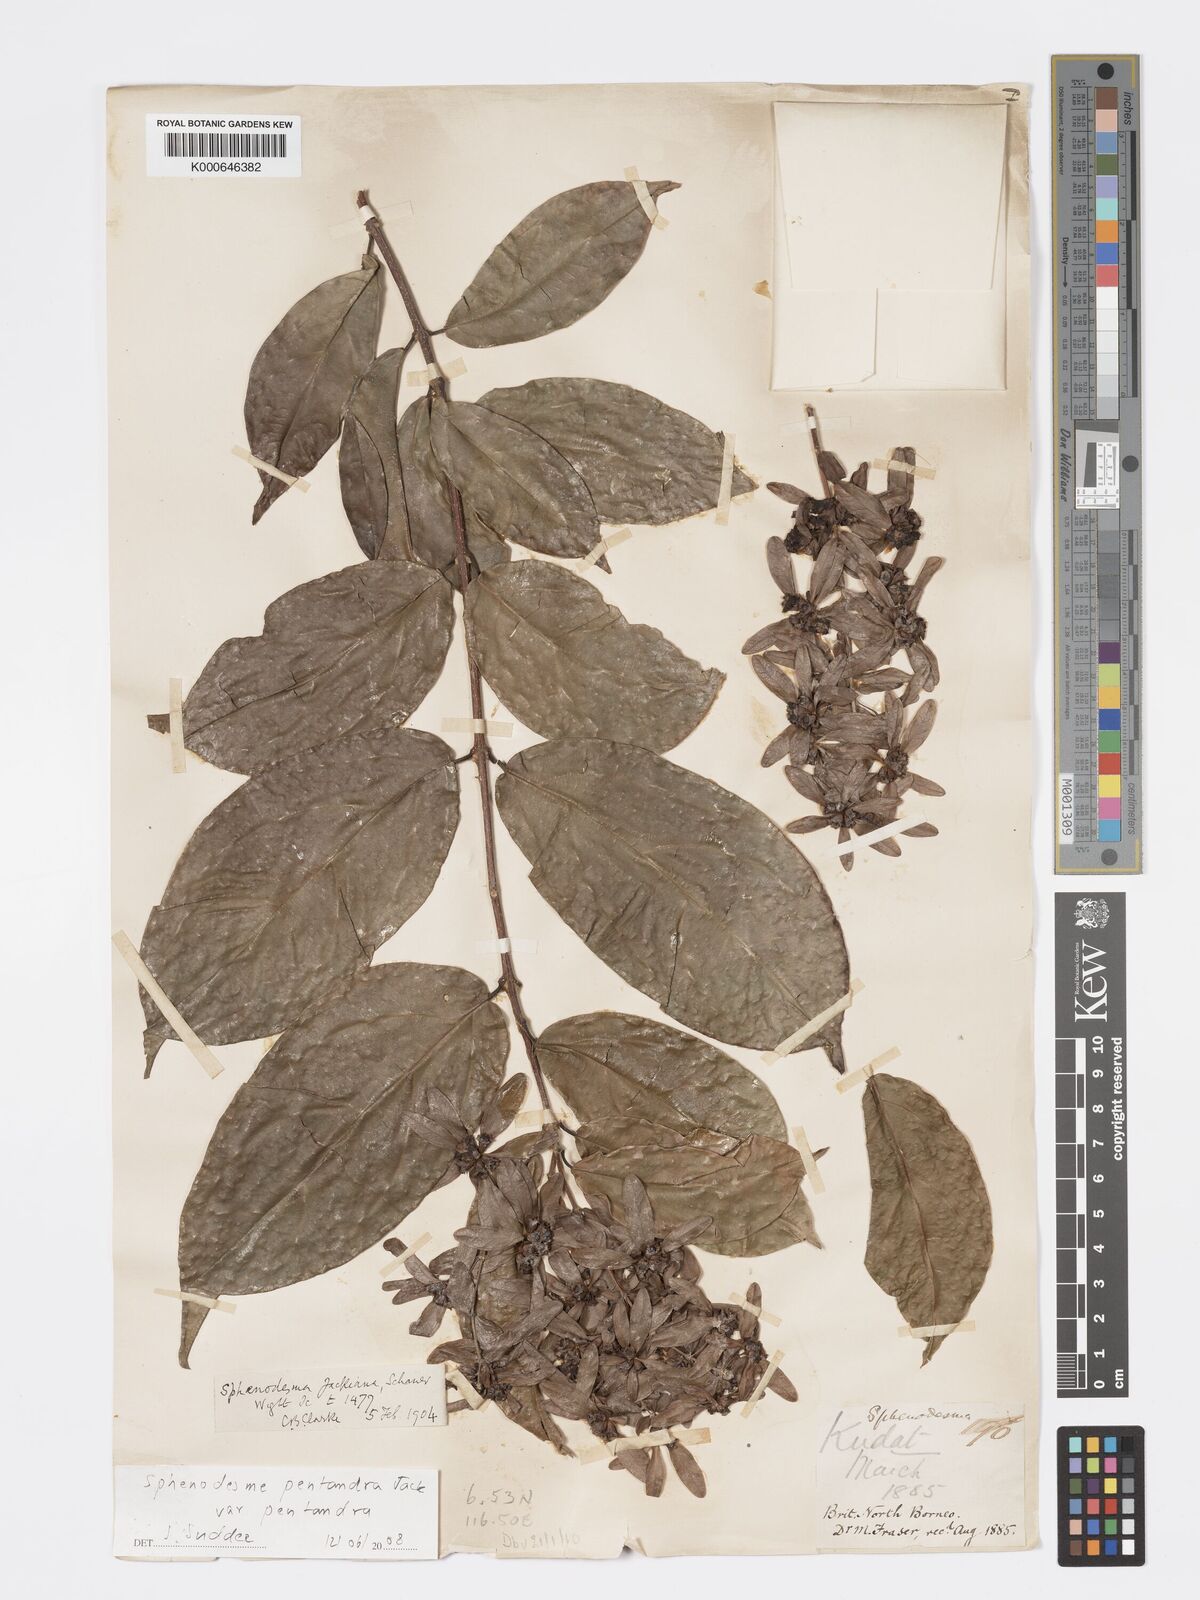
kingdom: Plantae
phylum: Tracheophyta
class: Magnoliopsida
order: Lamiales
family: Lamiaceae
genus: Sphenodesme
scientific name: Sphenodesme pentandra
